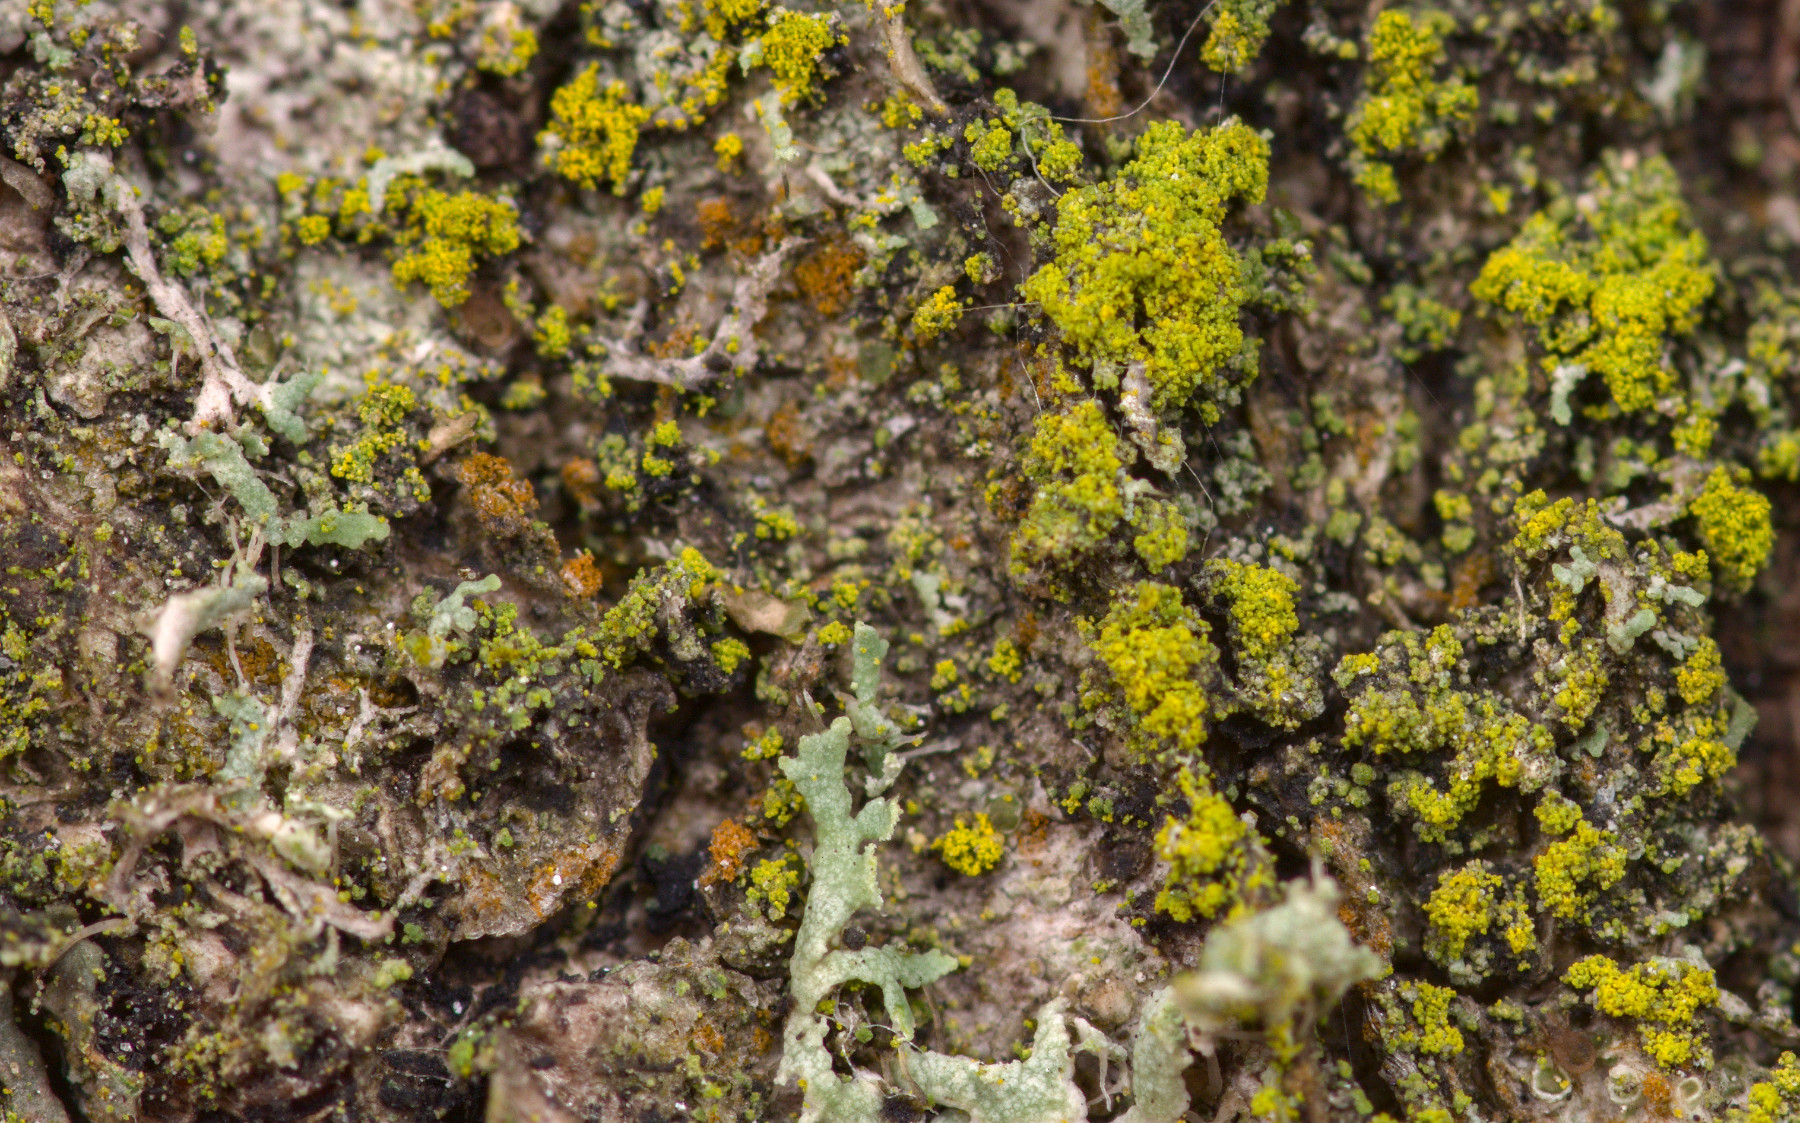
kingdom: Fungi
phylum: Ascomycota
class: Candelariomycetes
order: Candelariales
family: Candelariaceae
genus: Candelariella
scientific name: Candelariella reflexa
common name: grynskællet æggeblommelav
